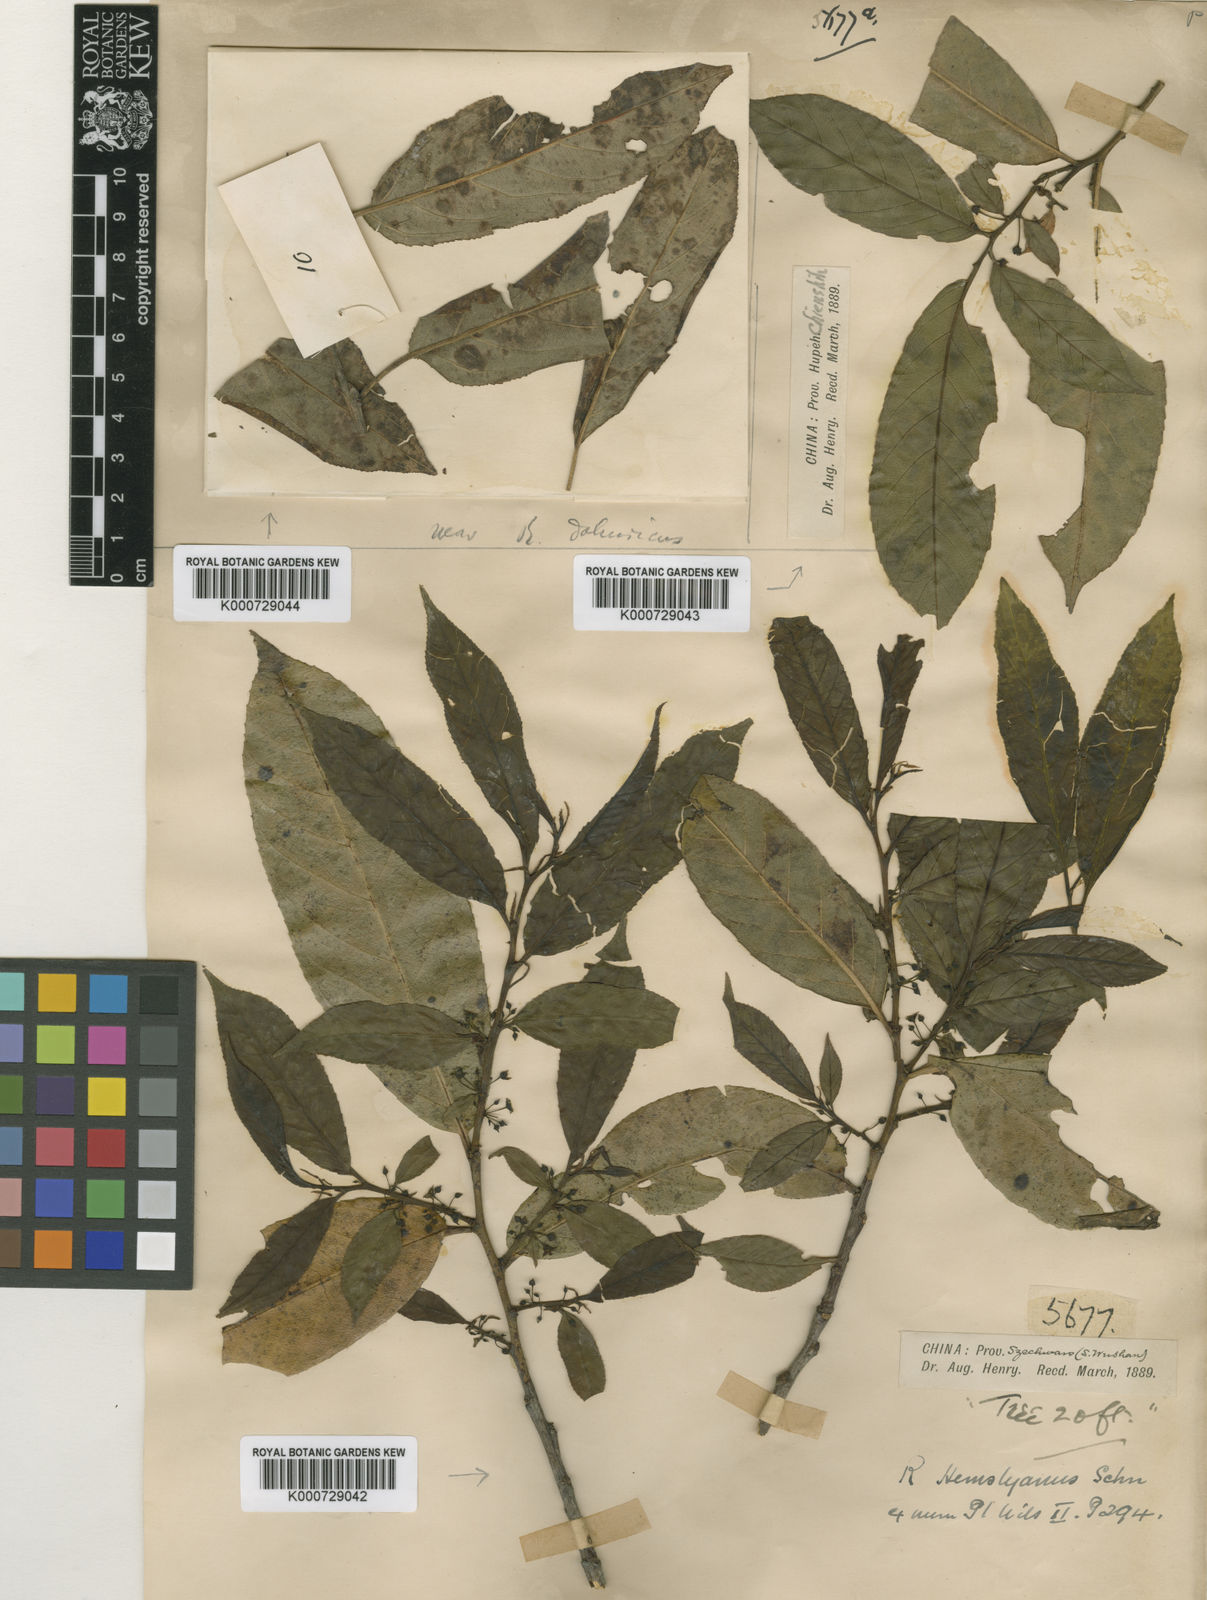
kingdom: Plantae
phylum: Tracheophyta
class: Magnoliopsida
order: Rosales
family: Rhamnaceae
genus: Rhamnus
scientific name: Rhamnus hemsleyana
